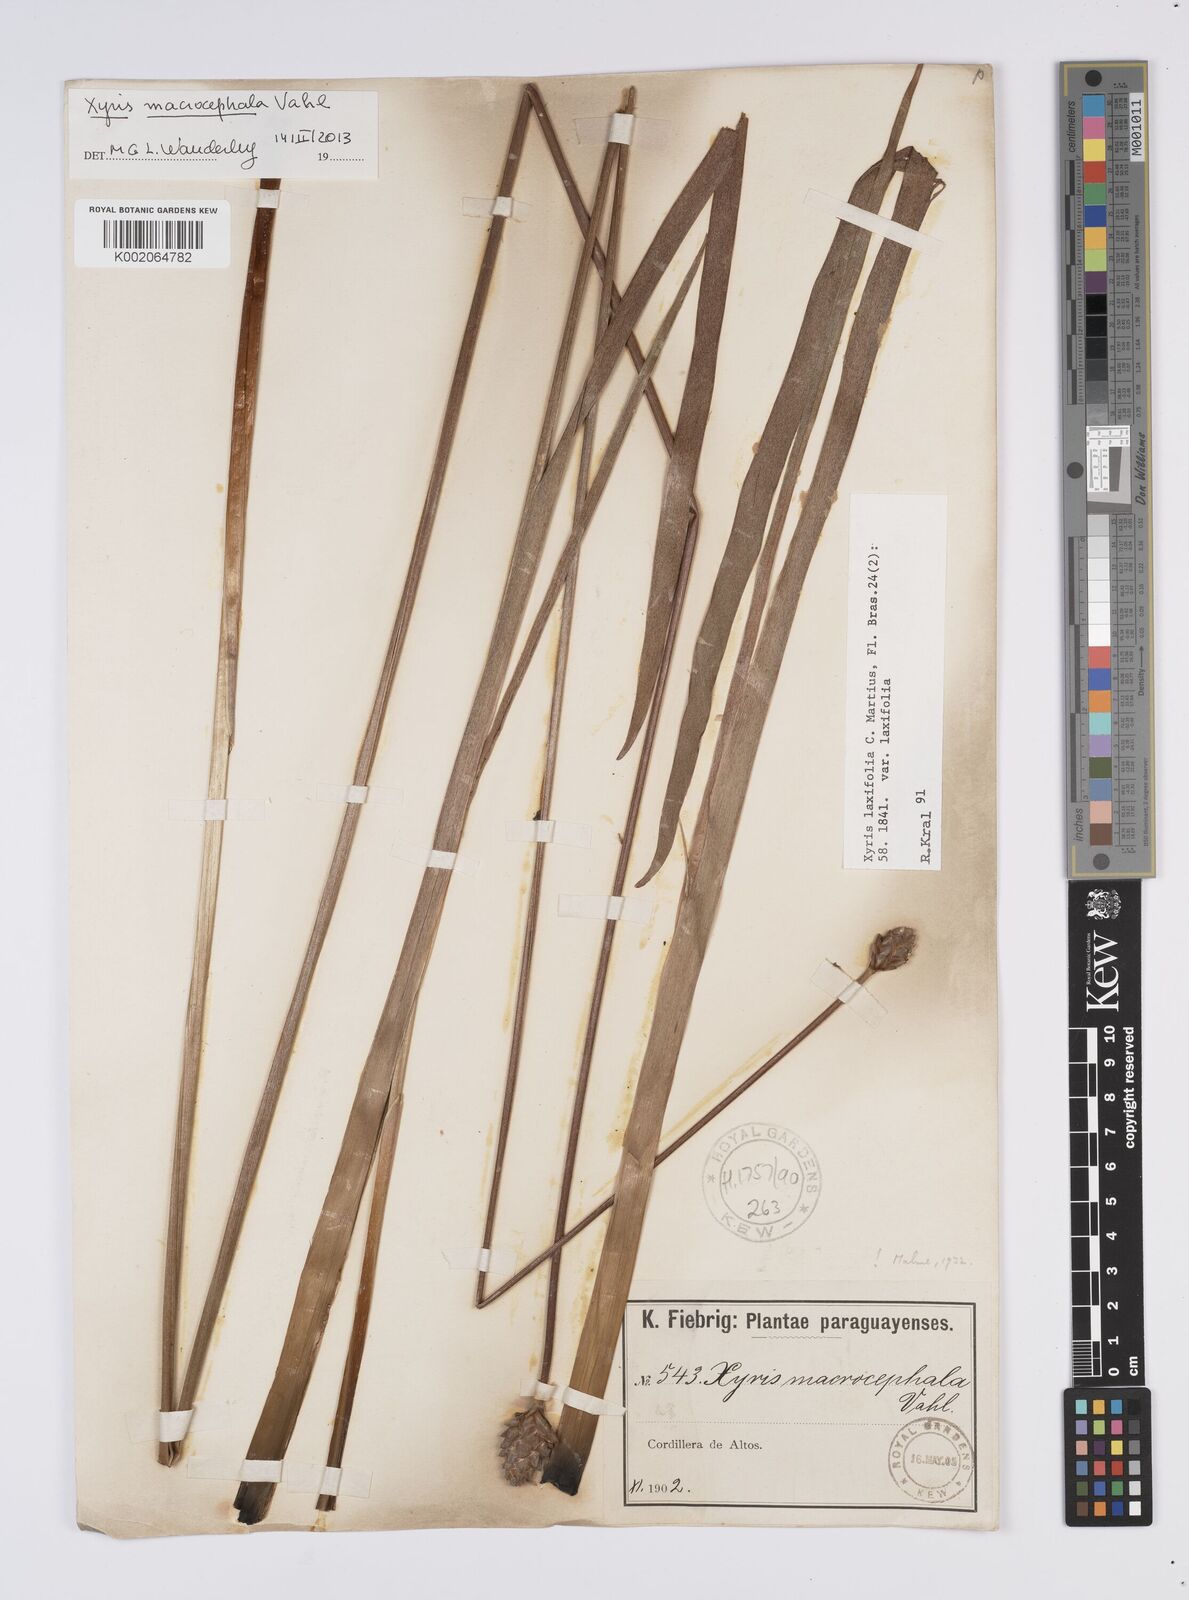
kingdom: Plantae
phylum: Tracheophyta
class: Liliopsida
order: Poales
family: Xyridaceae
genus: Xyris
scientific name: Xyris laxifolia
